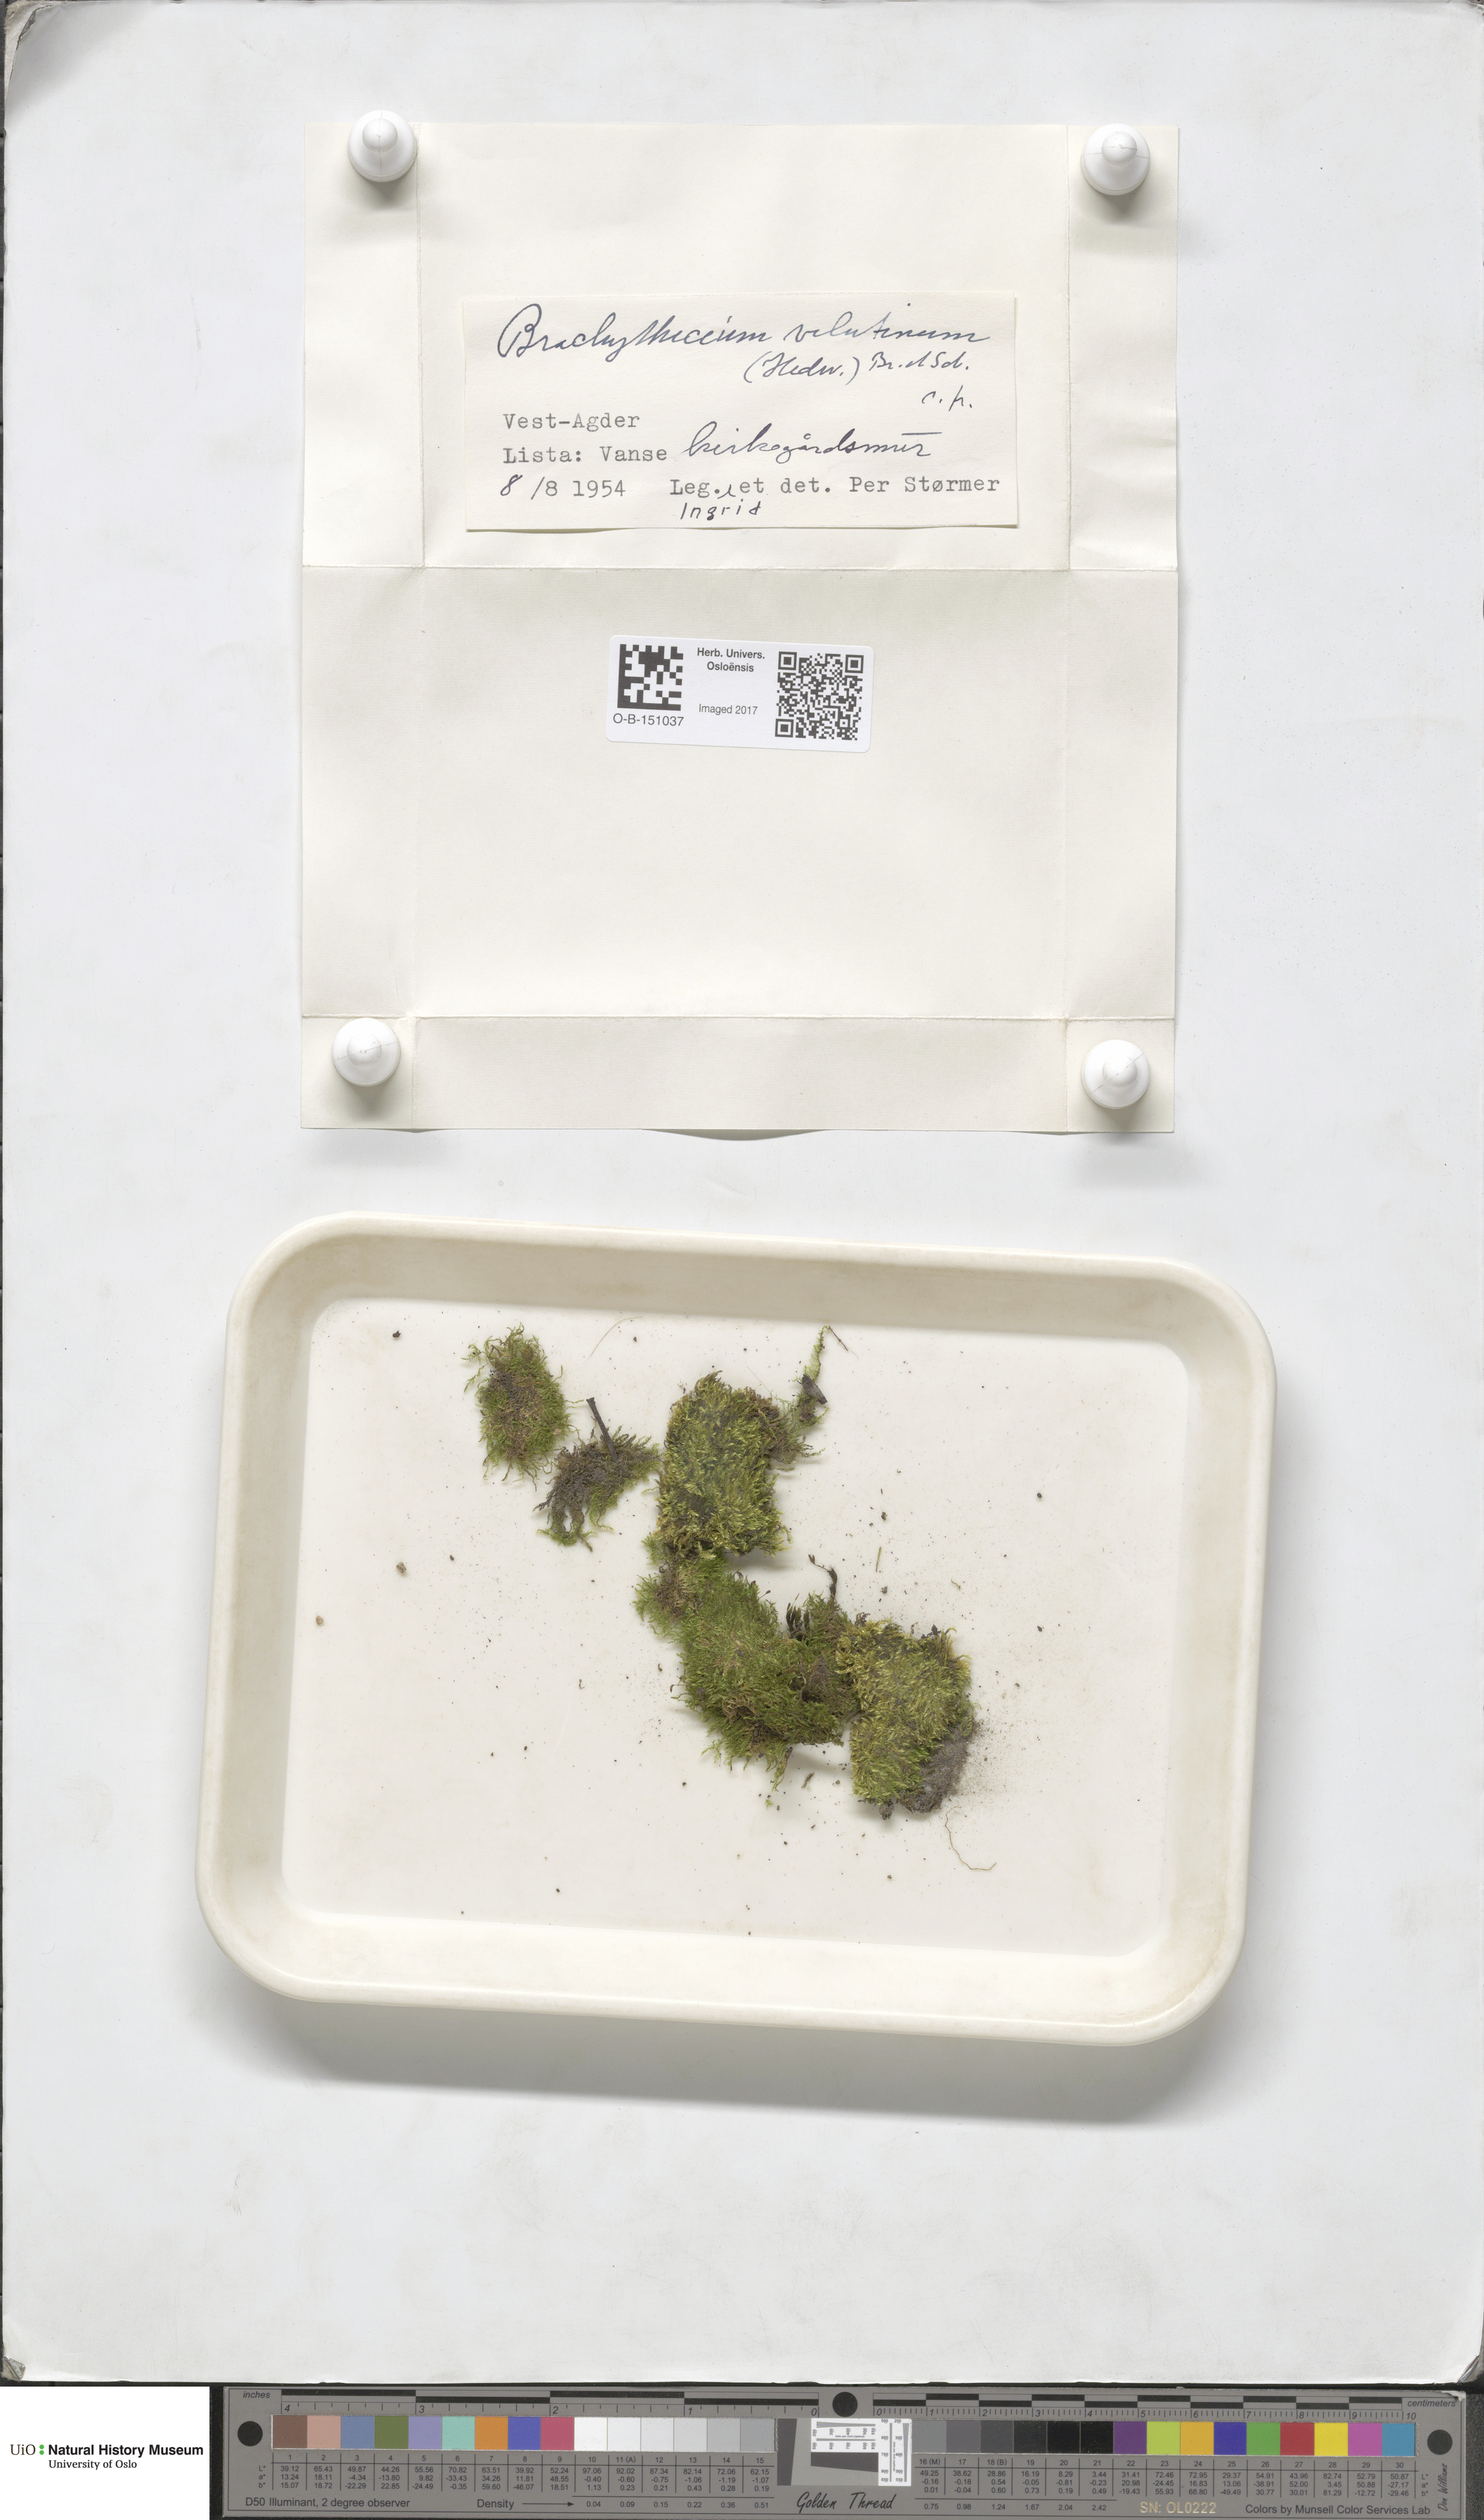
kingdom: Plantae
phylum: Bryophyta
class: Bryopsida
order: Hypnales
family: Brachytheciaceae
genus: Brachytheciastrum
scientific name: Brachytheciastrum velutinum
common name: Velvet feather-moss
